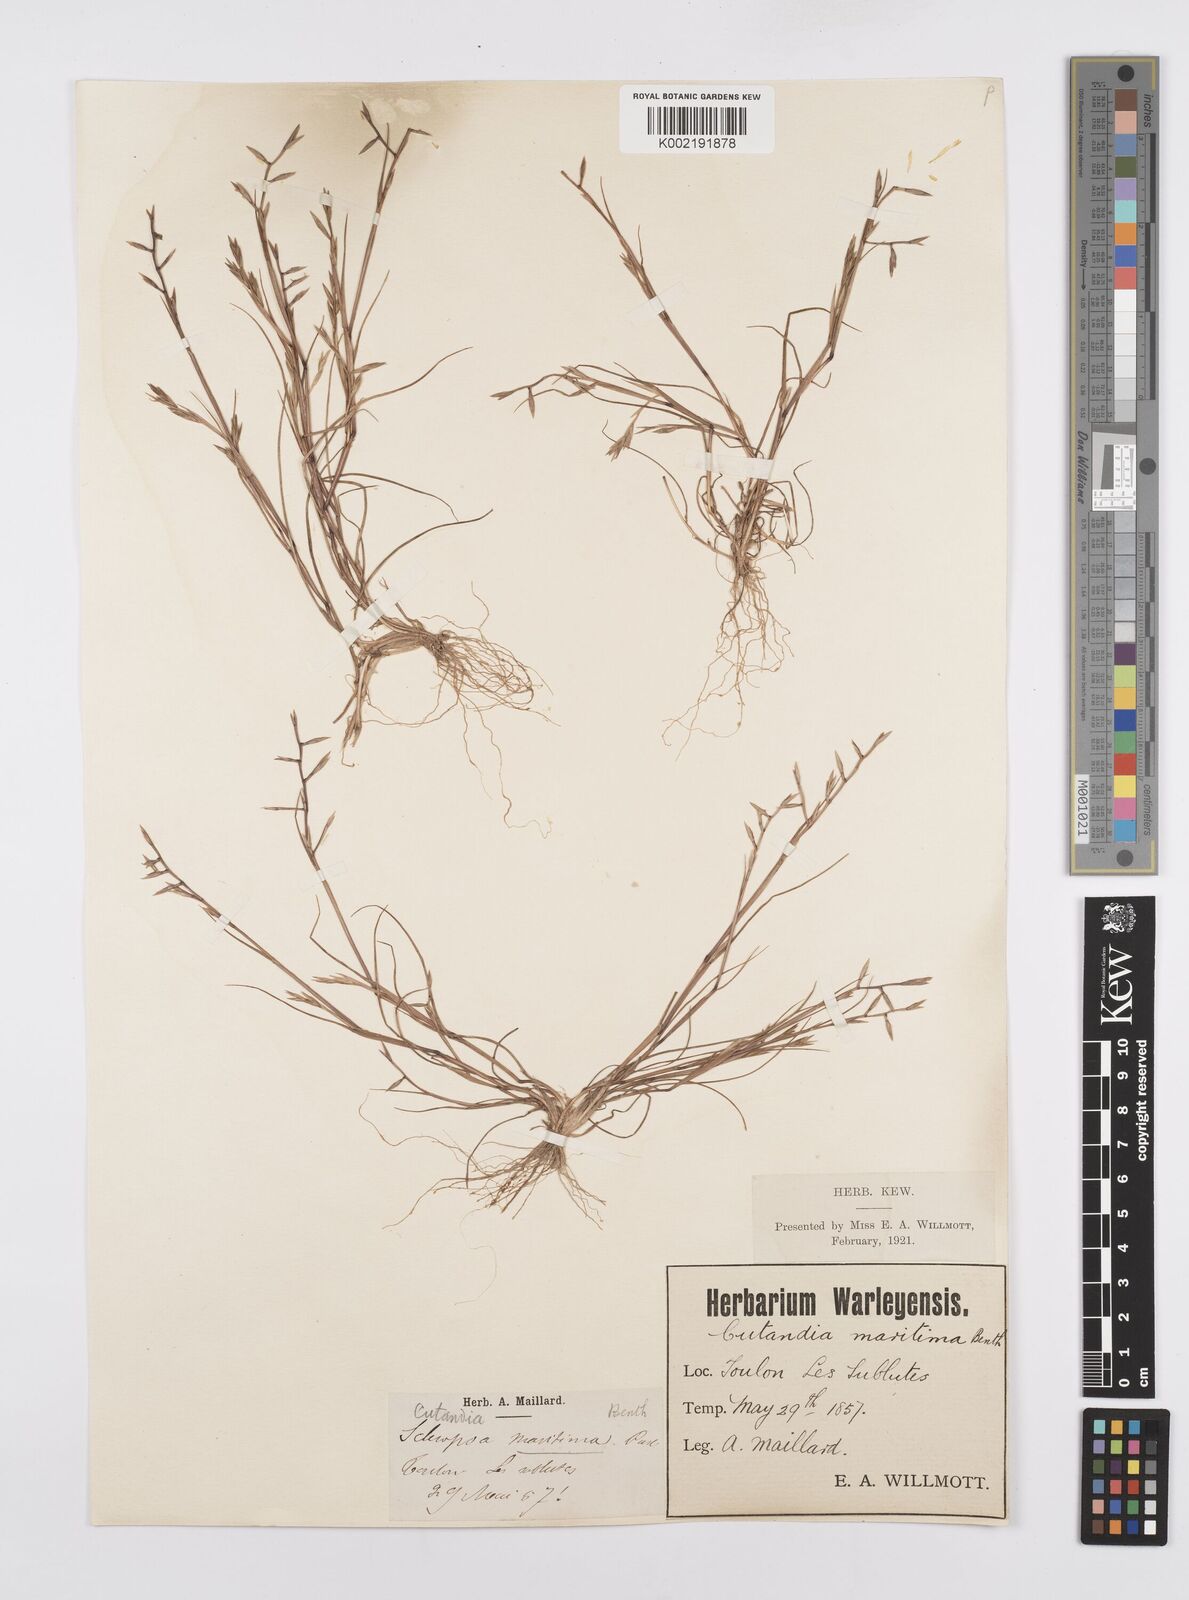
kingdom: Plantae
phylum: Tracheophyta
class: Liliopsida
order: Poales
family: Poaceae
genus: Cutandia
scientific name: Cutandia maritima
